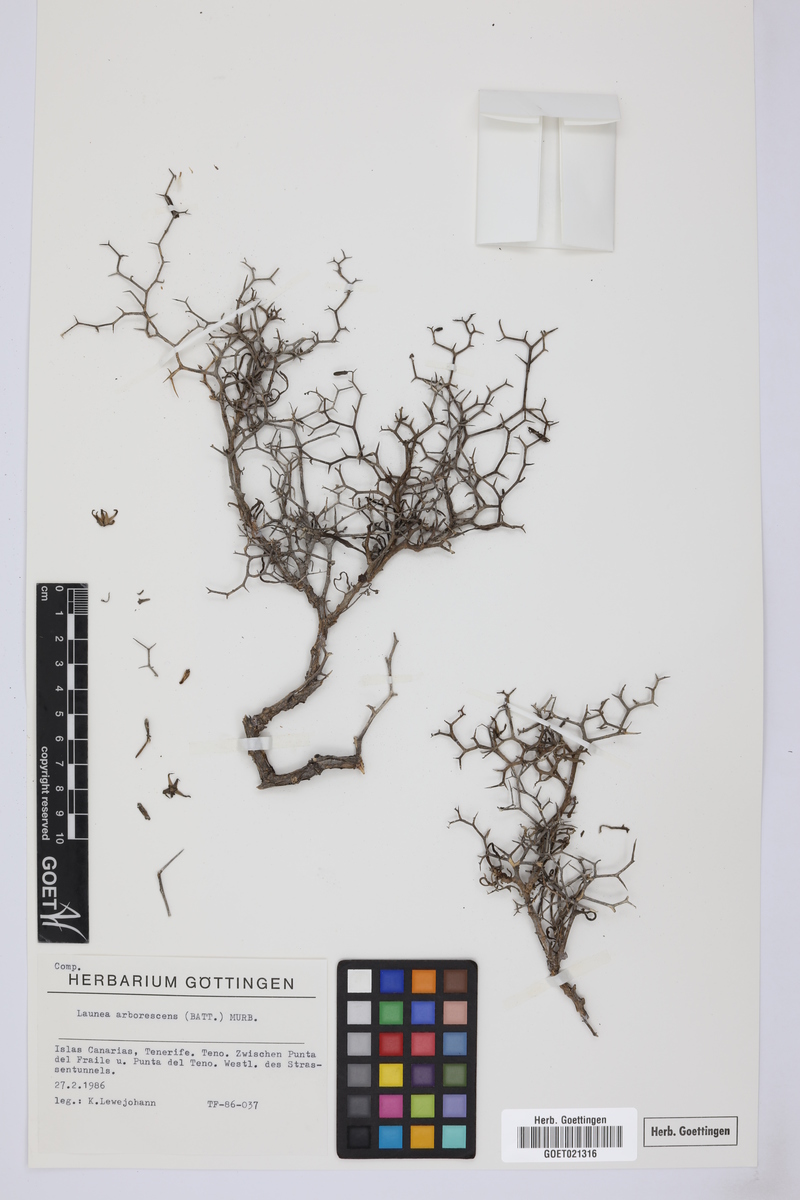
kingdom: Plantae
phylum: Tracheophyta
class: Magnoliopsida
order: Asterales
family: Asteraceae
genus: Launaea
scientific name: Launaea arborescens
